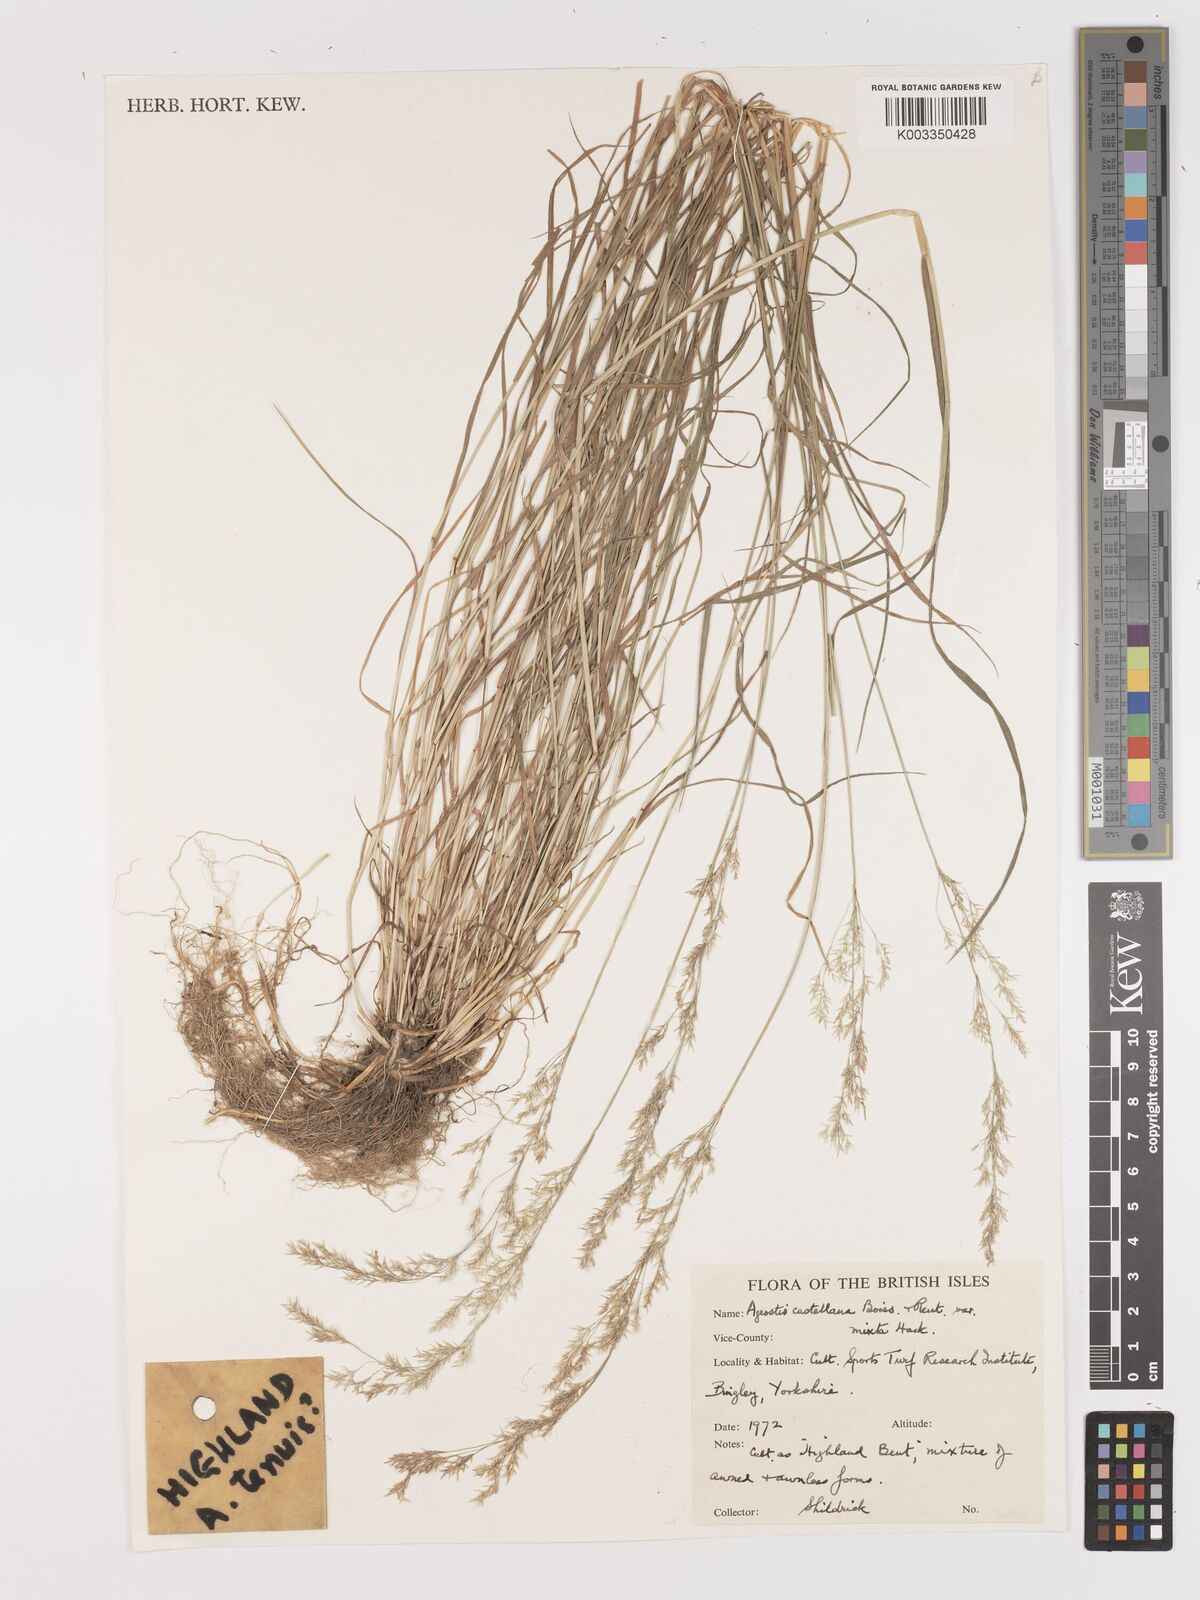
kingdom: Plantae
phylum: Tracheophyta
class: Liliopsida
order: Poales
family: Poaceae
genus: Agrostis
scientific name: Agrostis castellana
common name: Highland bent
